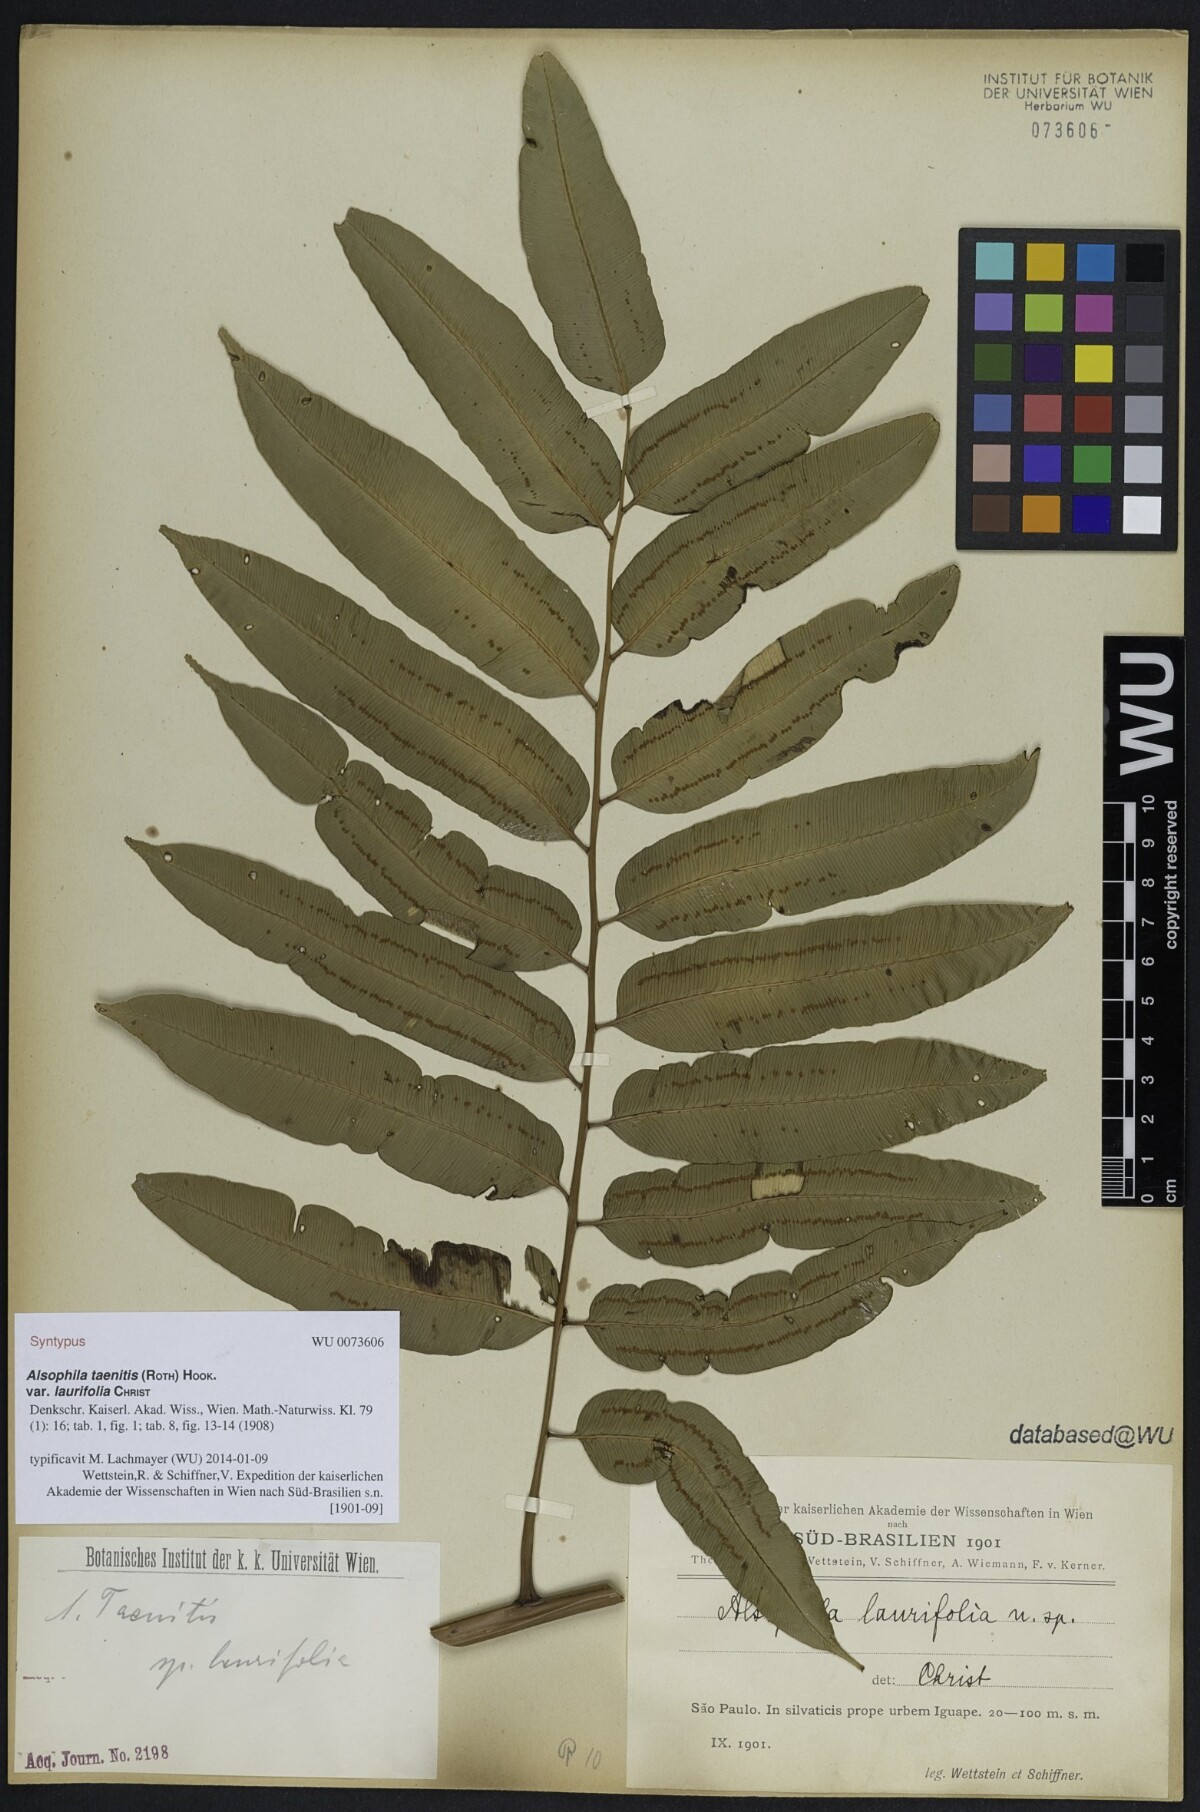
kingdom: Plantae
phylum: Tracheophyta
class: Polypodiopsida
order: Cyatheales
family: Cyatheaceae
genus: Cyathea
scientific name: Cyathea corcovadensis
